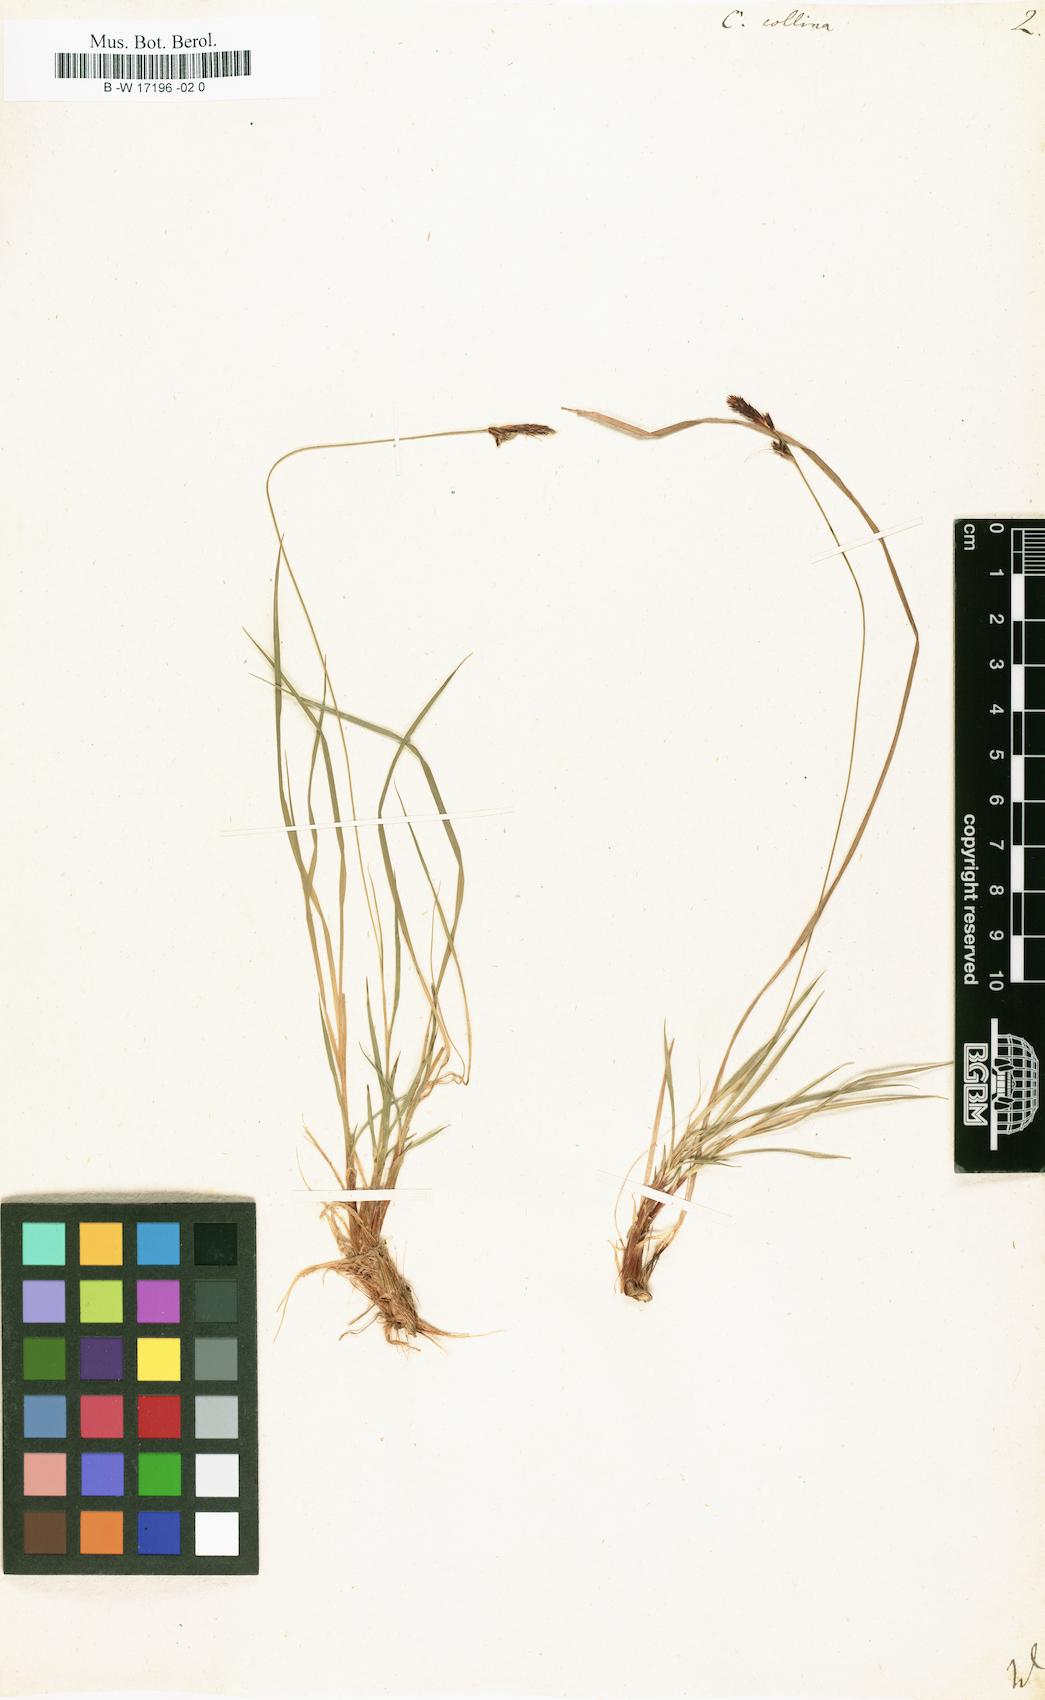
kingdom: Plantae
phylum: Tracheophyta
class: Liliopsida
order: Poales
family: Cyperaceae
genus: Carex
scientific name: Carex montana
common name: Soft-leaved sedge
